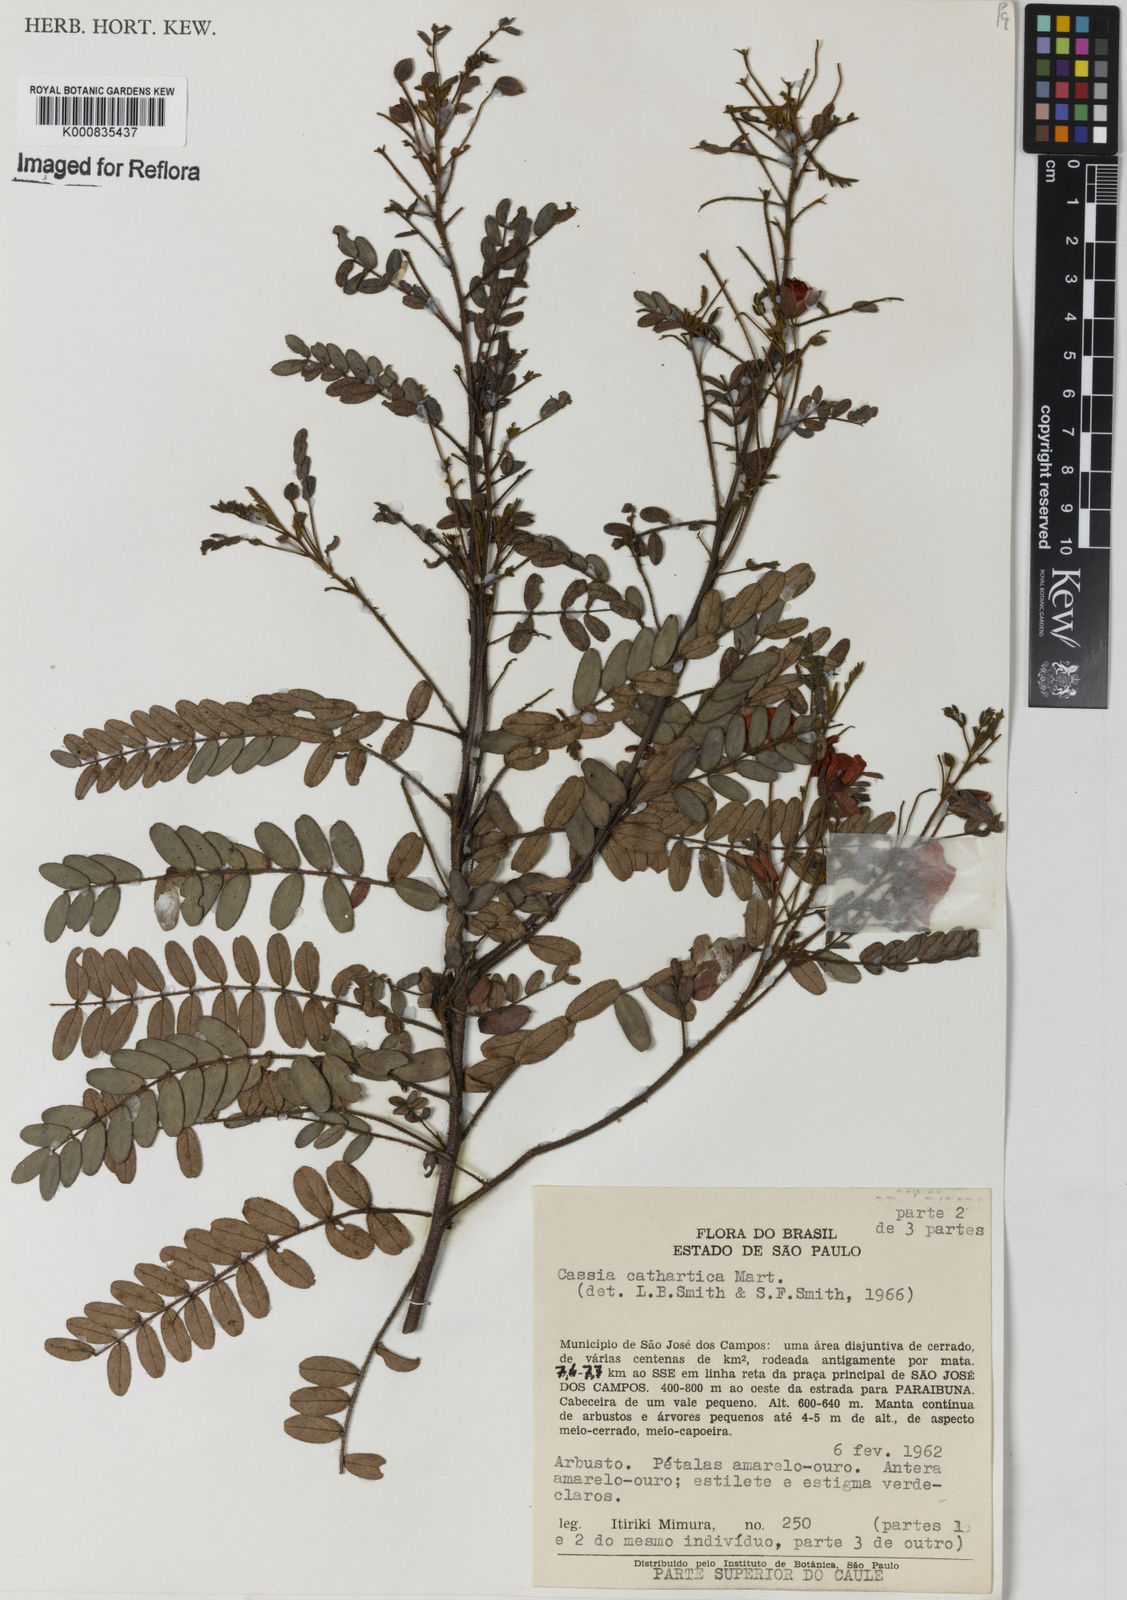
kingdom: Plantae
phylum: Tracheophyta
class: Magnoliopsida
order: Fabales
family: Fabaceae
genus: Chamaecrista
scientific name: Chamaecrista cathartica
